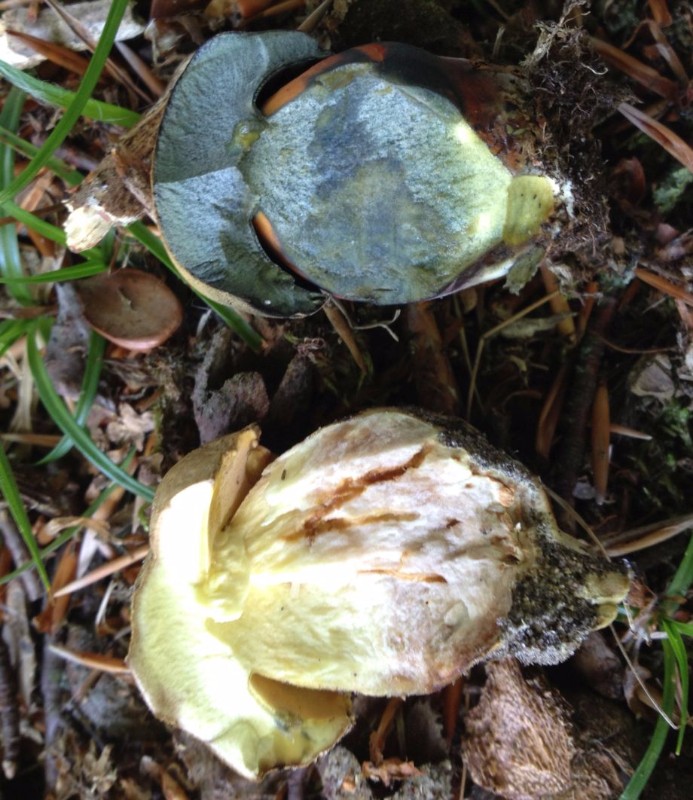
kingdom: Fungi
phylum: Basidiomycota
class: Agaricomycetes
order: Boletales
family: Boletaceae
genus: Neoboletus
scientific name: Neoboletus erythropus
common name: punktstokket indigorørhat
